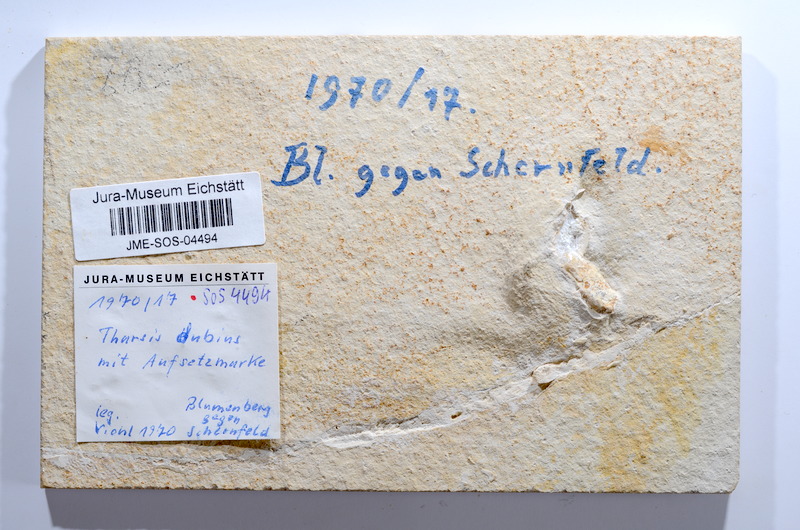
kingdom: Animalia
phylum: Chordata
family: Ascalaboidae
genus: Tharsis
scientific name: Tharsis dubius
